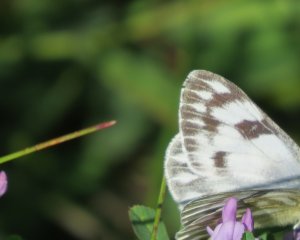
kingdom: Animalia
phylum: Arthropoda
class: Insecta
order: Lepidoptera
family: Pieridae
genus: Pontia
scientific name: Pontia protodice
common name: Checkered White
